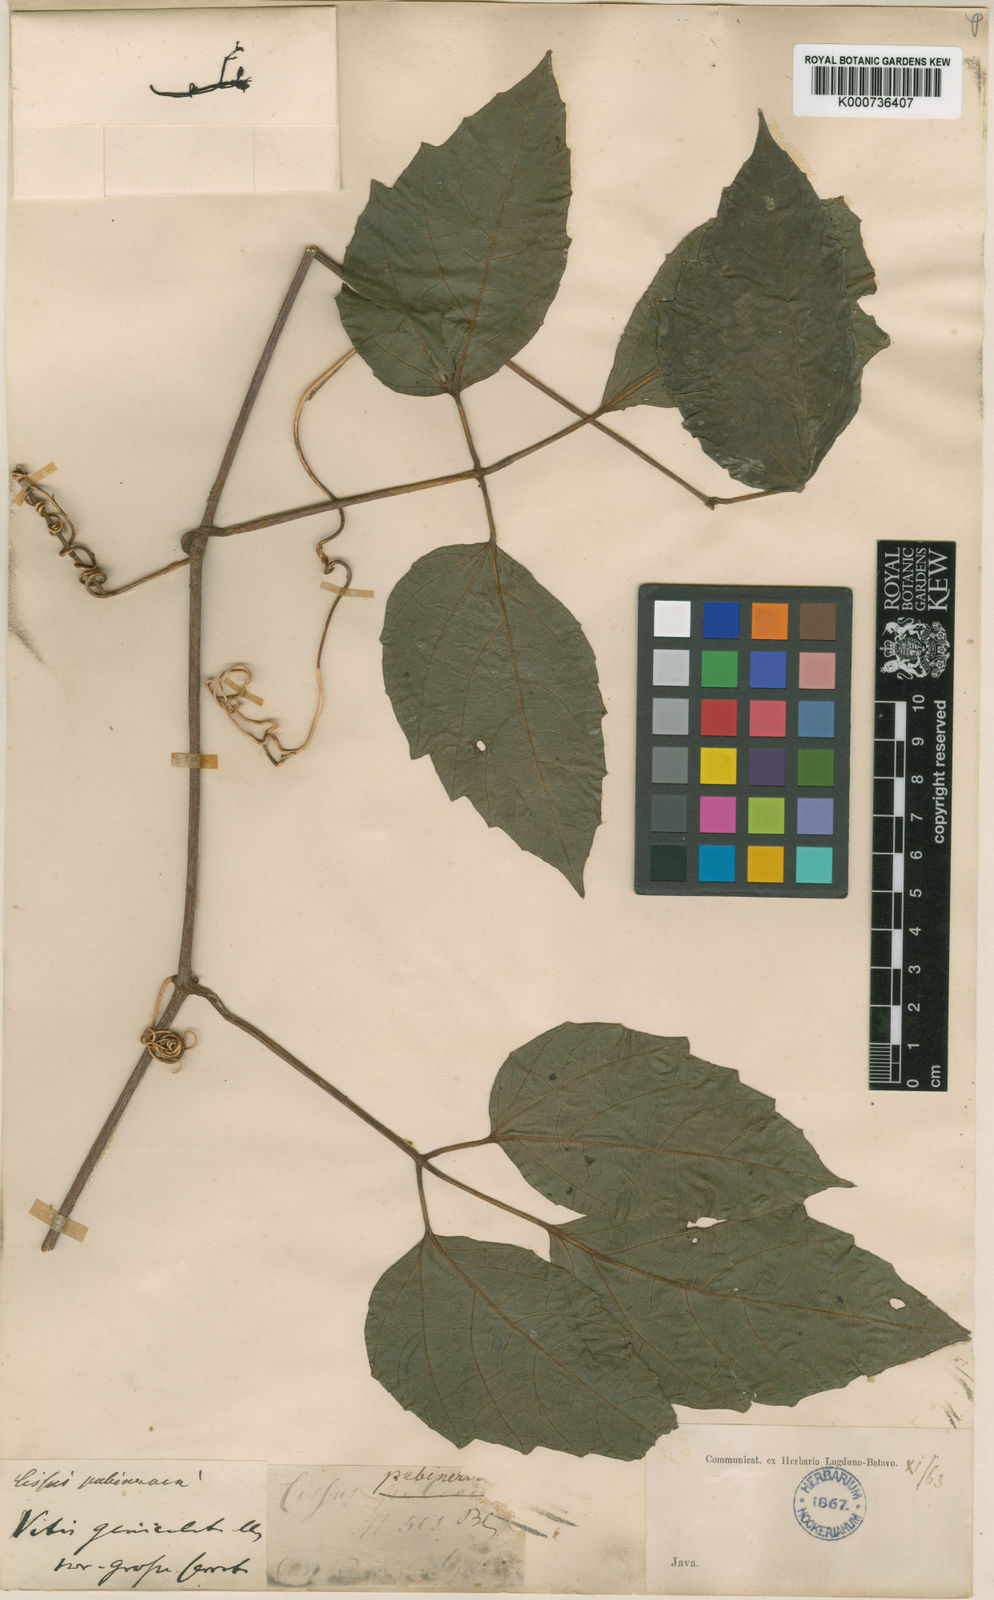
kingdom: Plantae
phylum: Tracheophyta
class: Magnoliopsida
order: Vitales
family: Vitaceae
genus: Cayratia
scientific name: Cayratia mollissima
